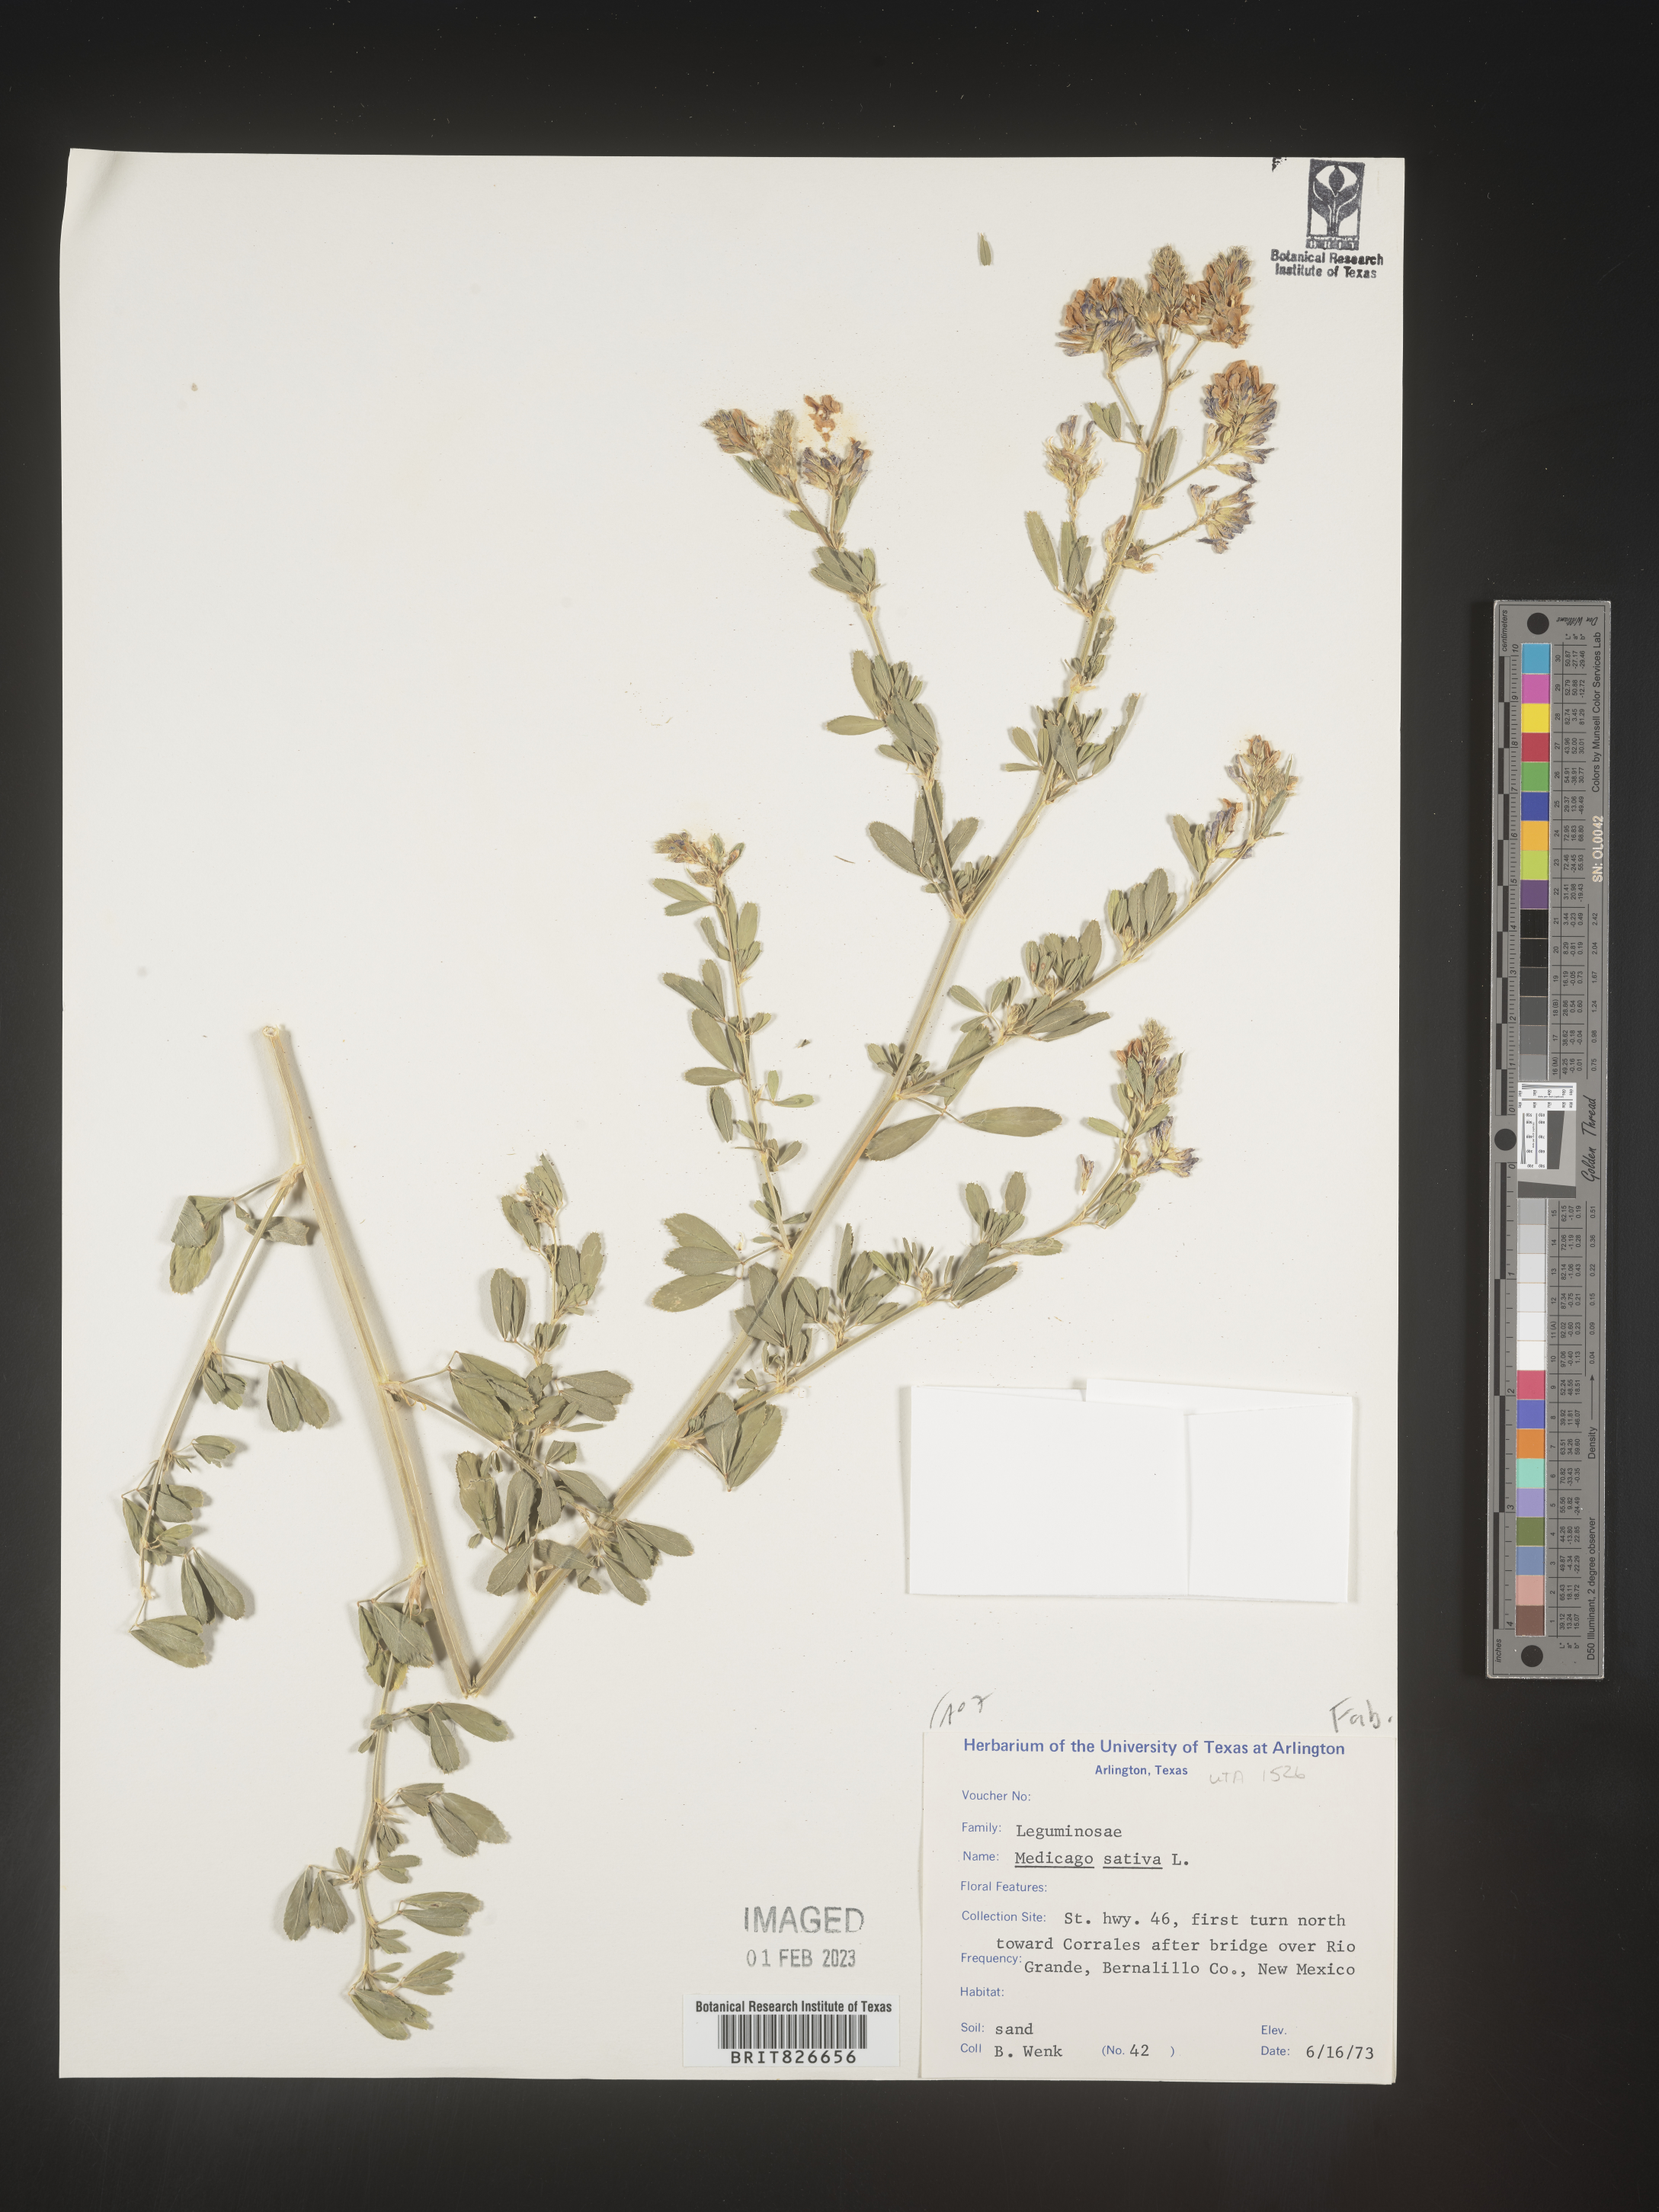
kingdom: Plantae
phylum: Tracheophyta
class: Magnoliopsida
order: Fabales
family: Fabaceae
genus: Medicago
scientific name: Medicago sativa
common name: Alfalfa
